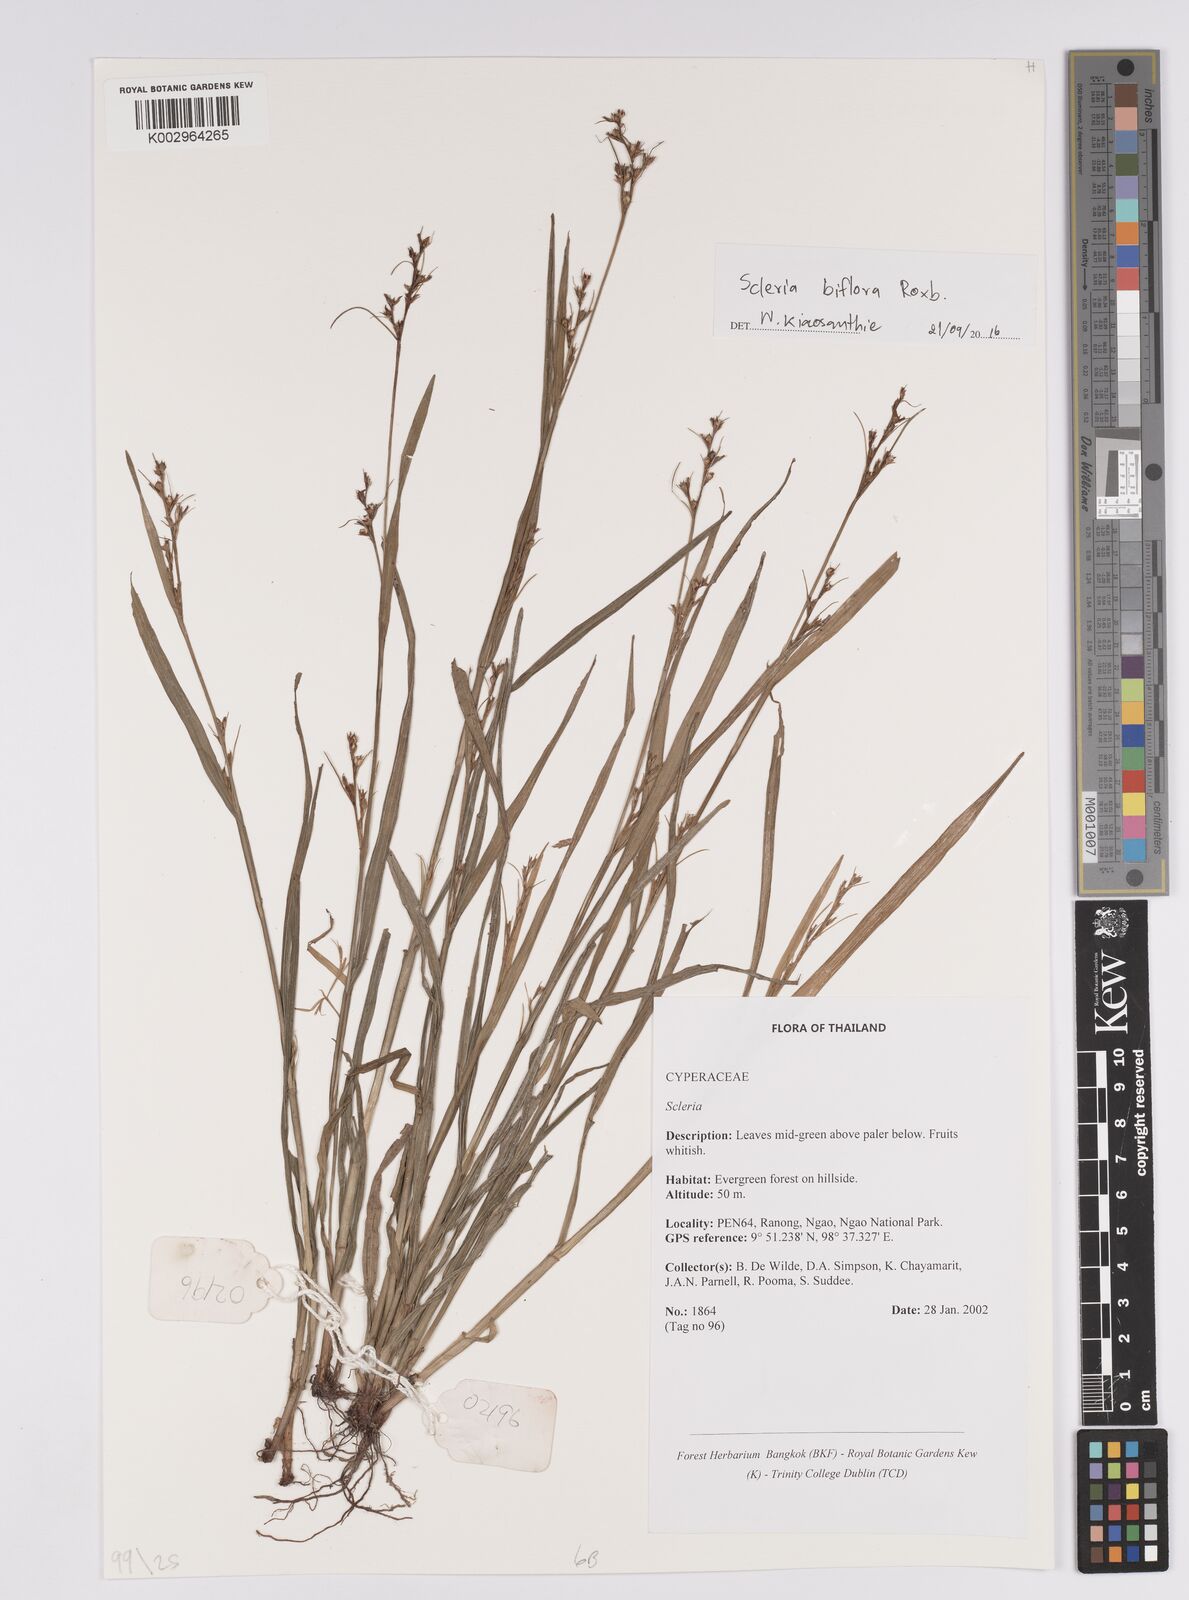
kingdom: Plantae
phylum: Tracheophyta
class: Liliopsida
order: Poales
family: Cyperaceae
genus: Scleria
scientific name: Scleria biflora
